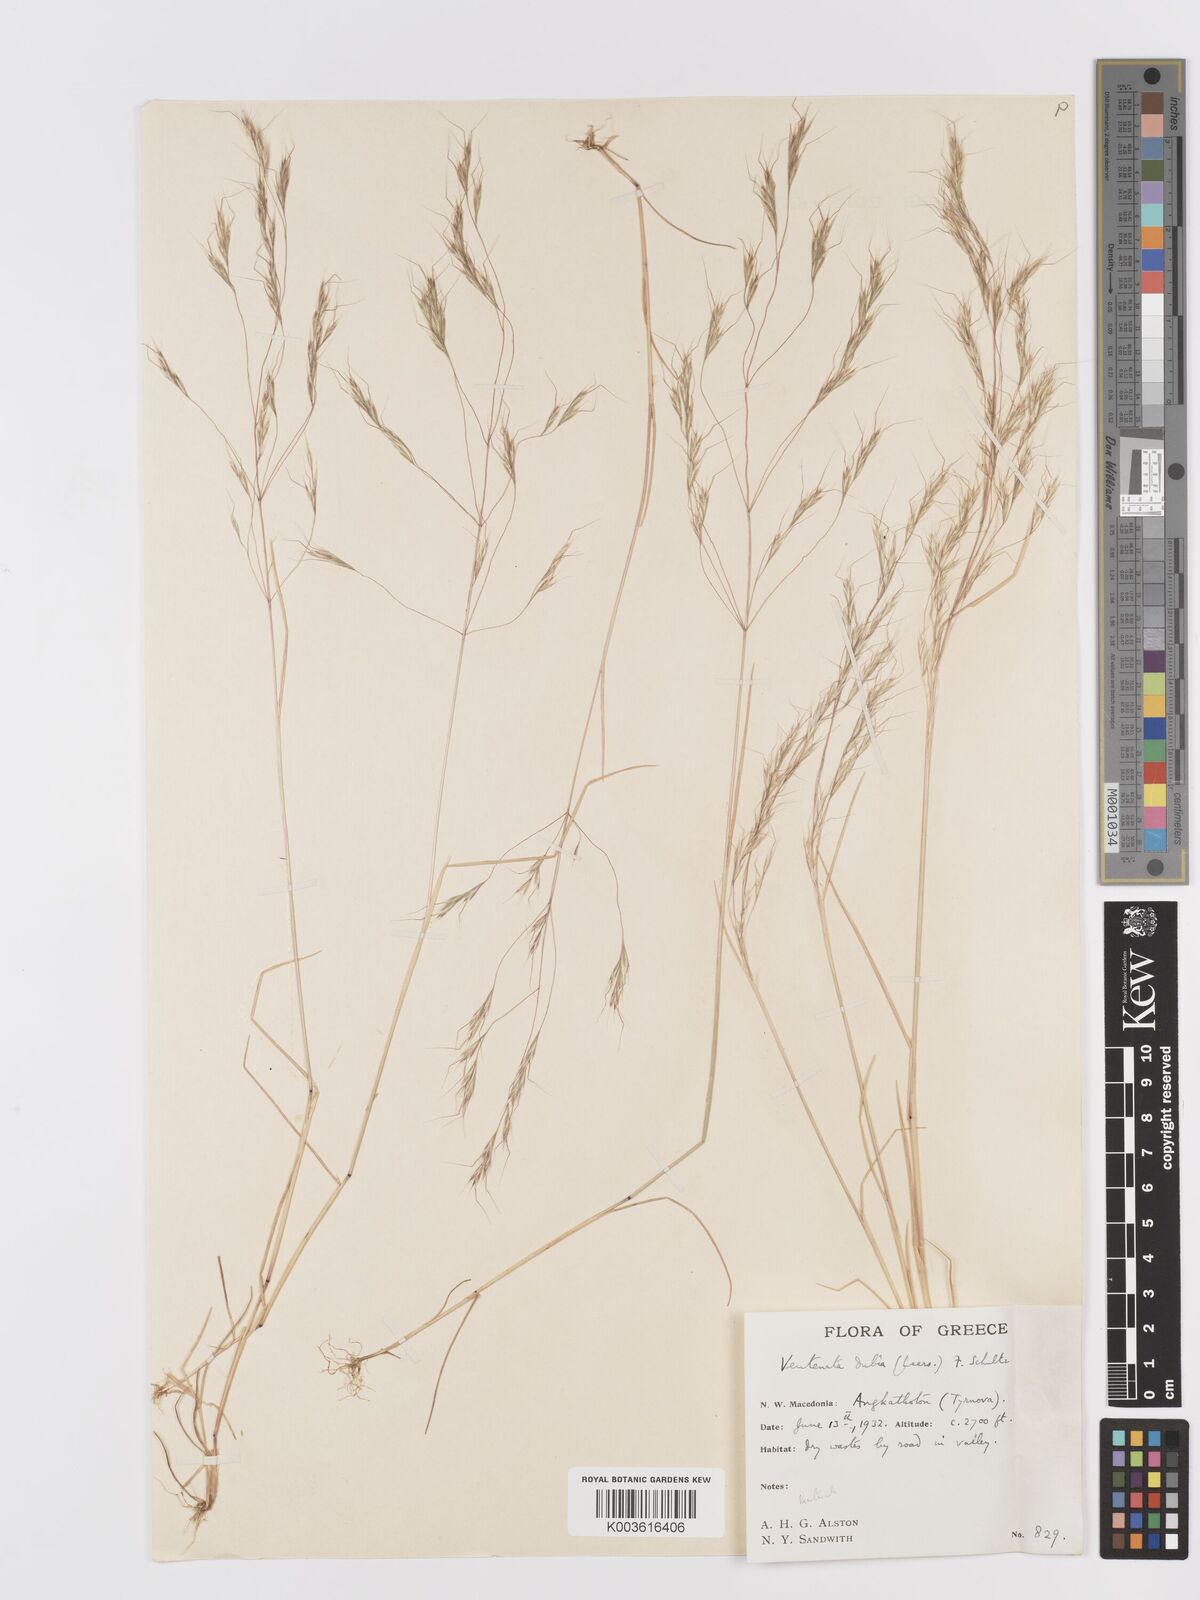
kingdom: Plantae
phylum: Tracheophyta
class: Liliopsida
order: Poales
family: Poaceae
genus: Ventenata
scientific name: Ventenata dubia
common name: North africa grass
